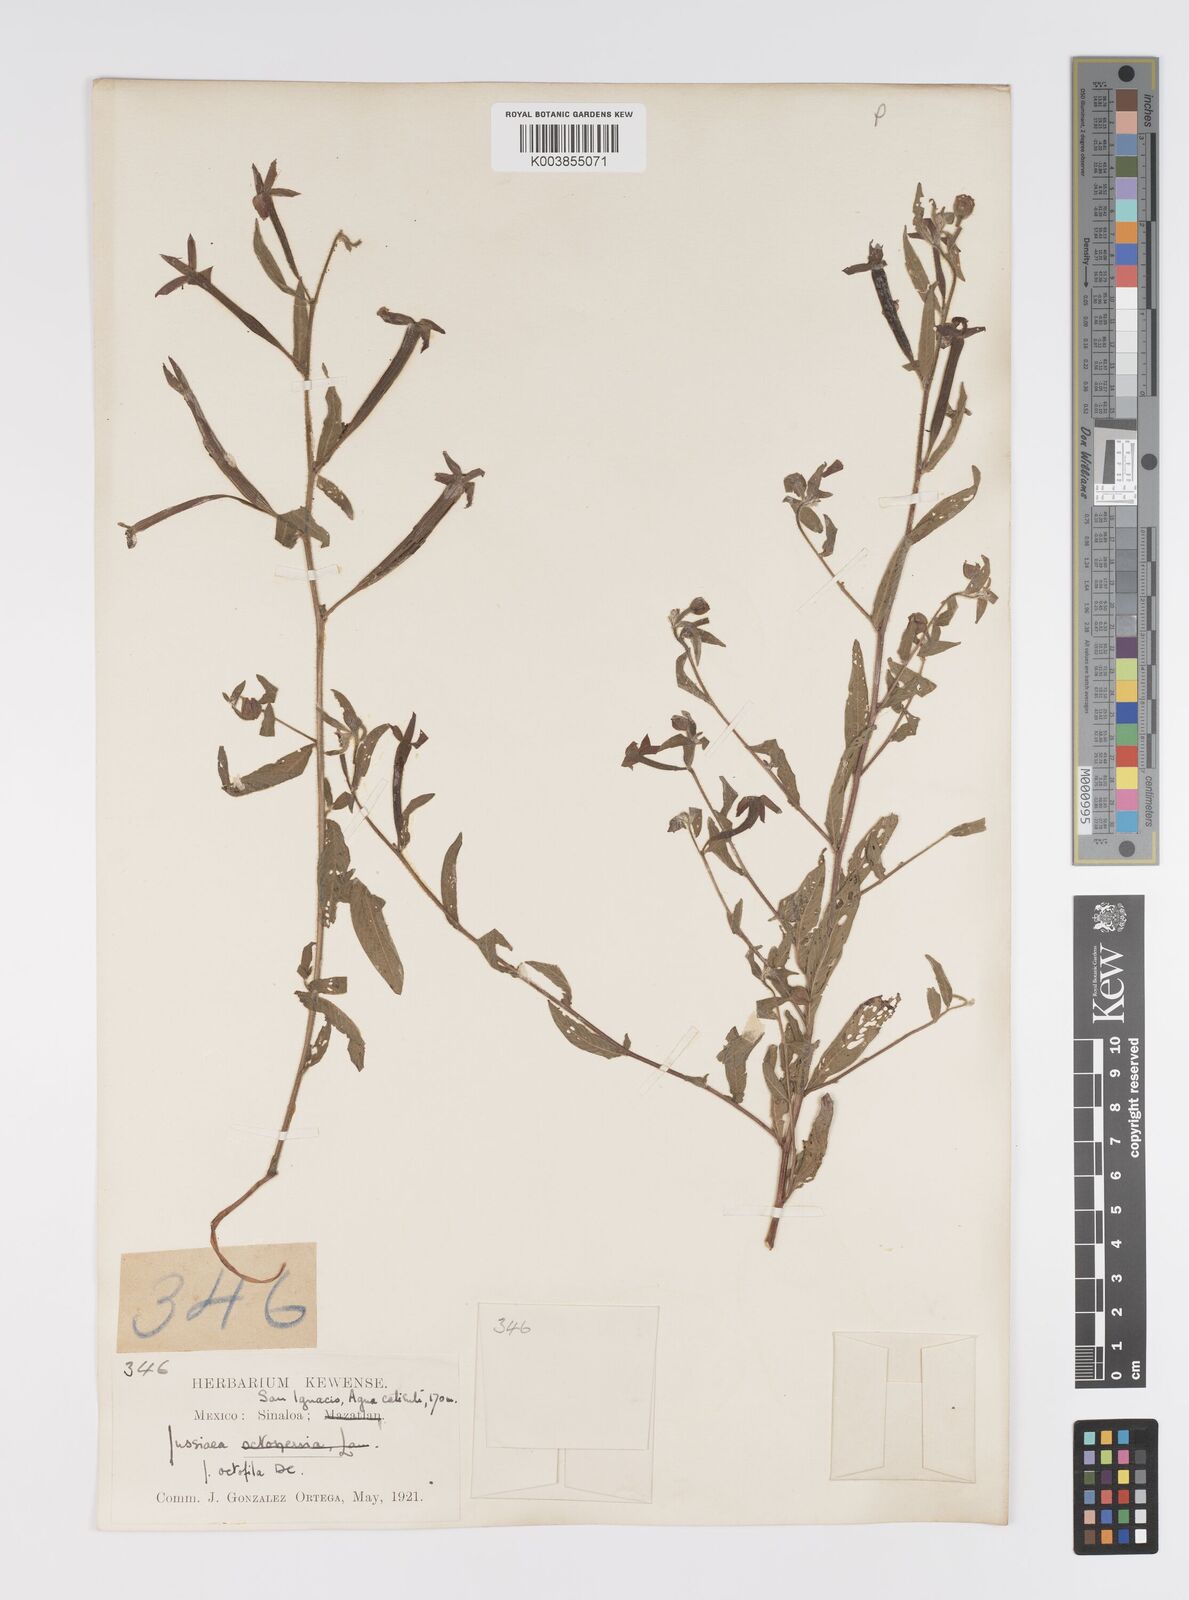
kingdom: Plantae
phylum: Tracheophyta
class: Magnoliopsida
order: Myrtales
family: Onagraceae
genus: Ludwigia
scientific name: Ludwigia octovalvis
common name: Water-primrose
